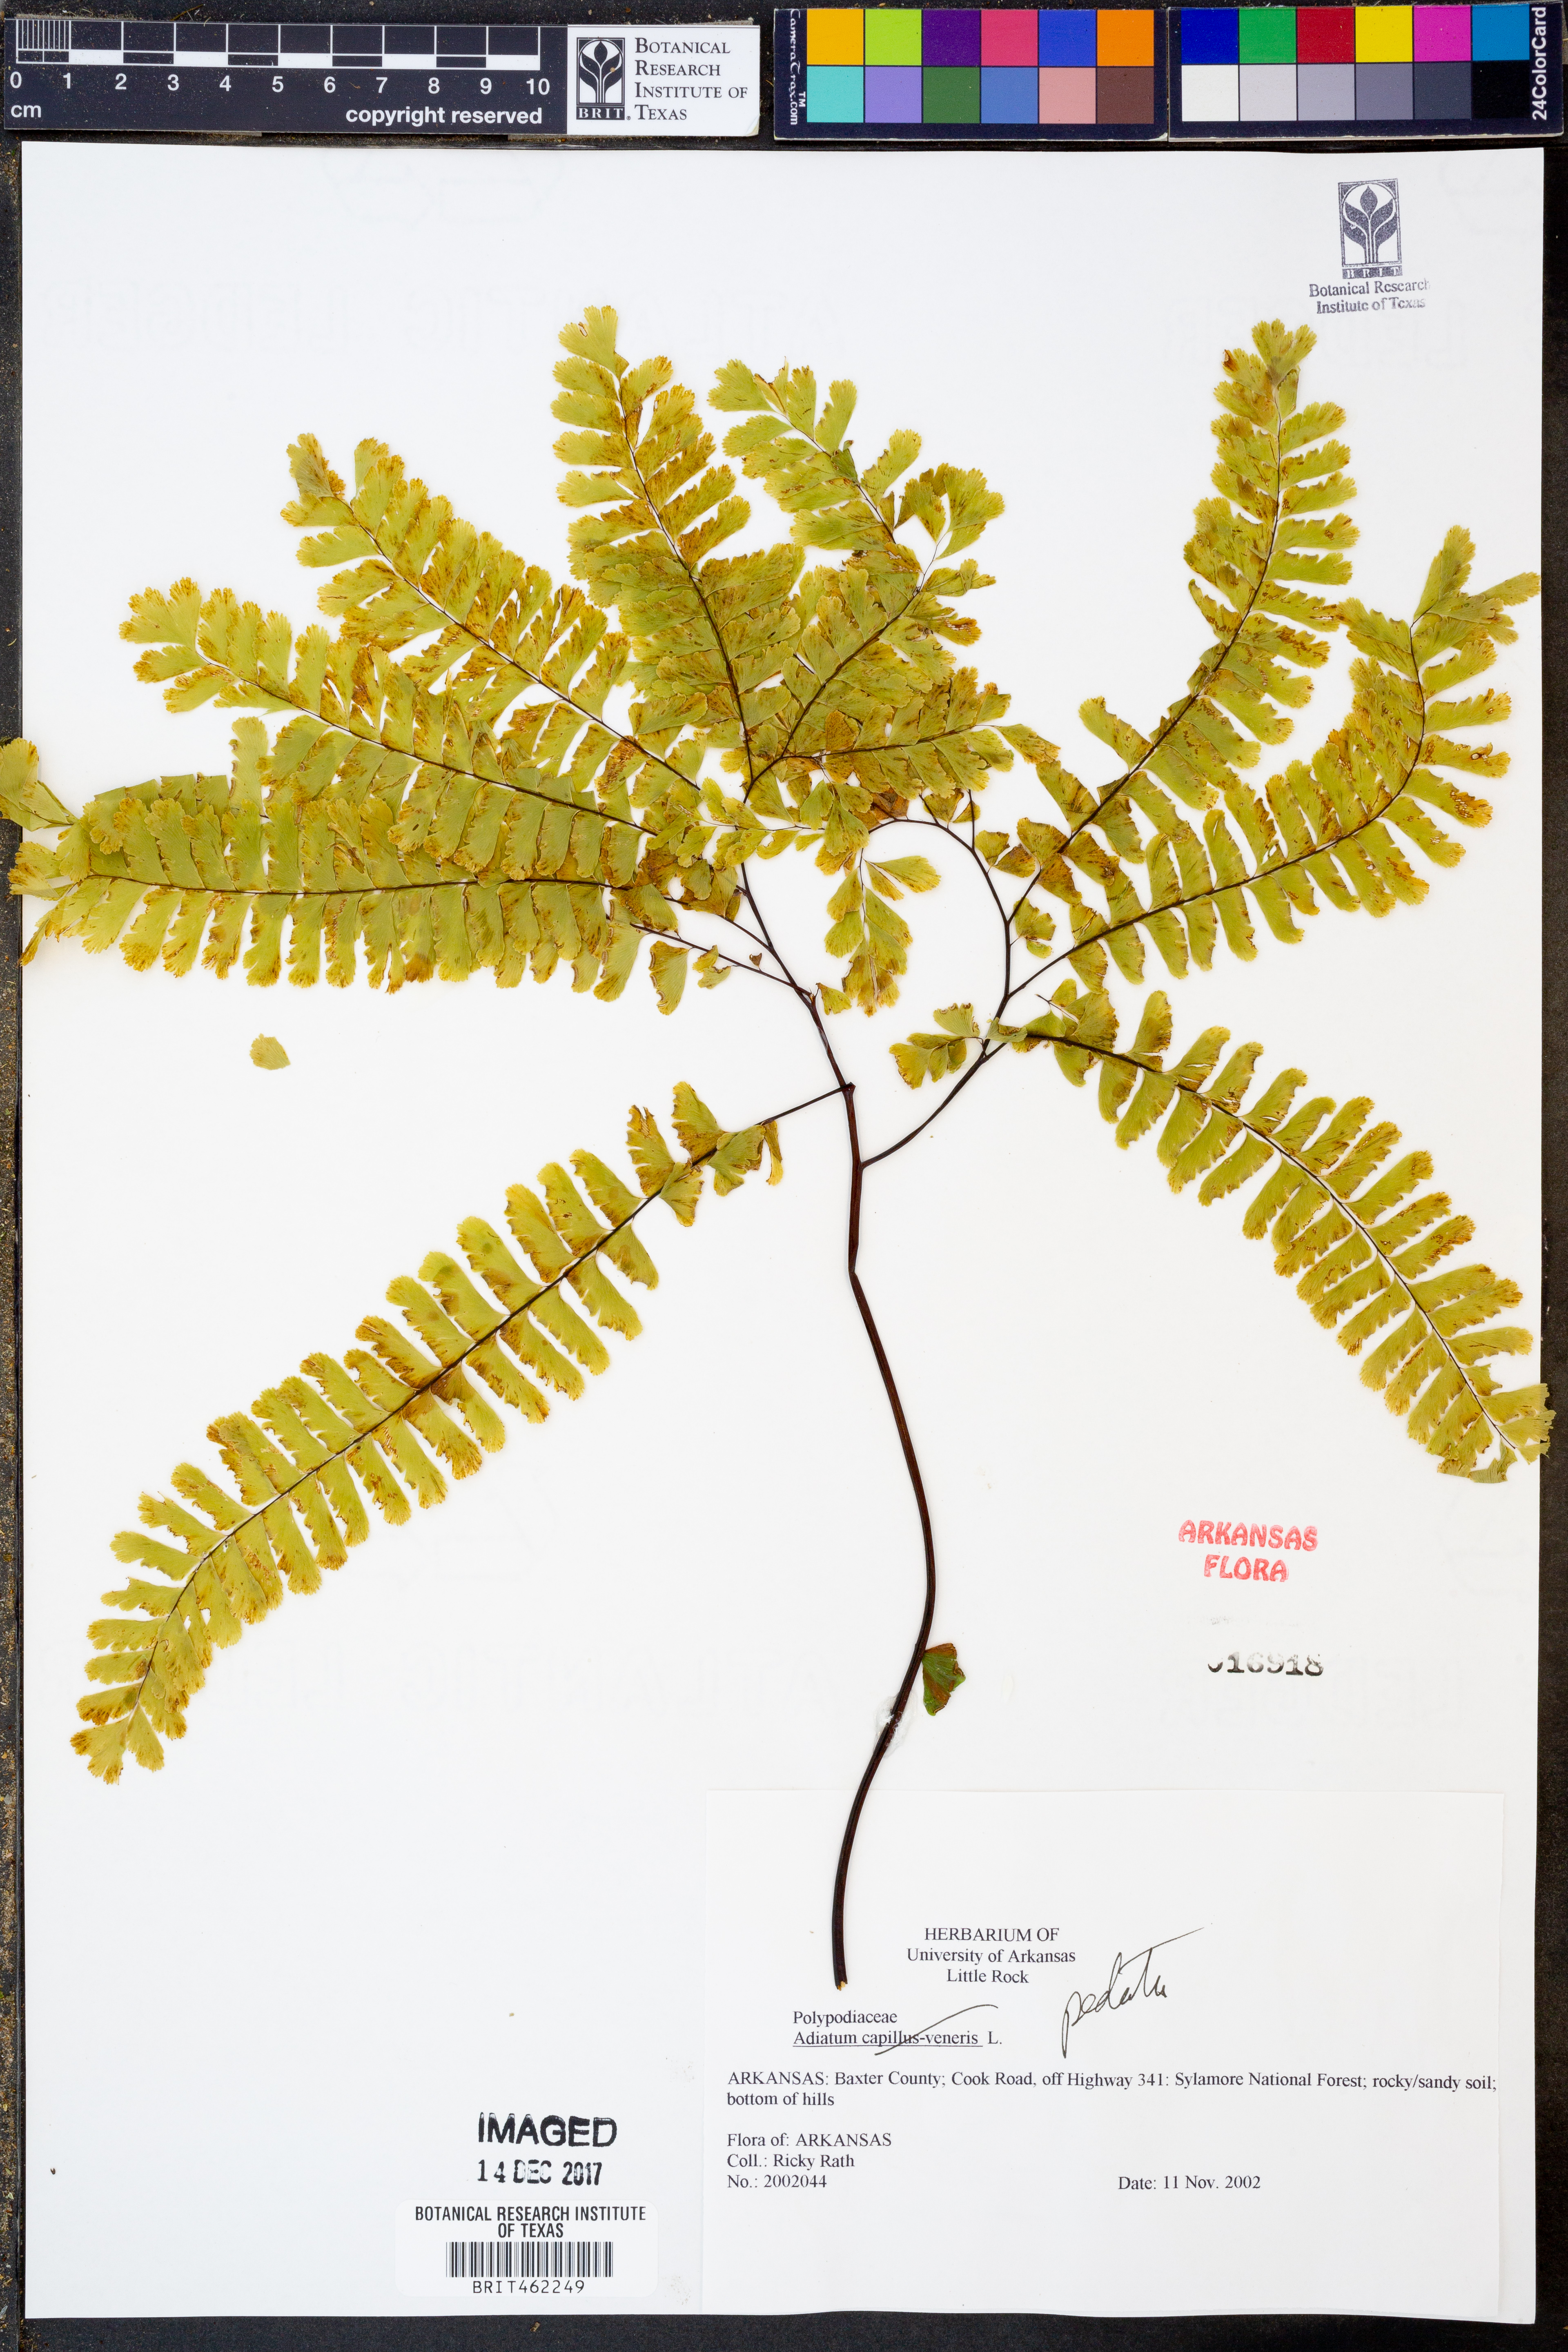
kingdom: Plantae
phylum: Tracheophyta
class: Polypodiopsida
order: Polypodiales
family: Pteridaceae
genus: Adiantum
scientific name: Adiantum pedatum
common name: Five-finger fern
